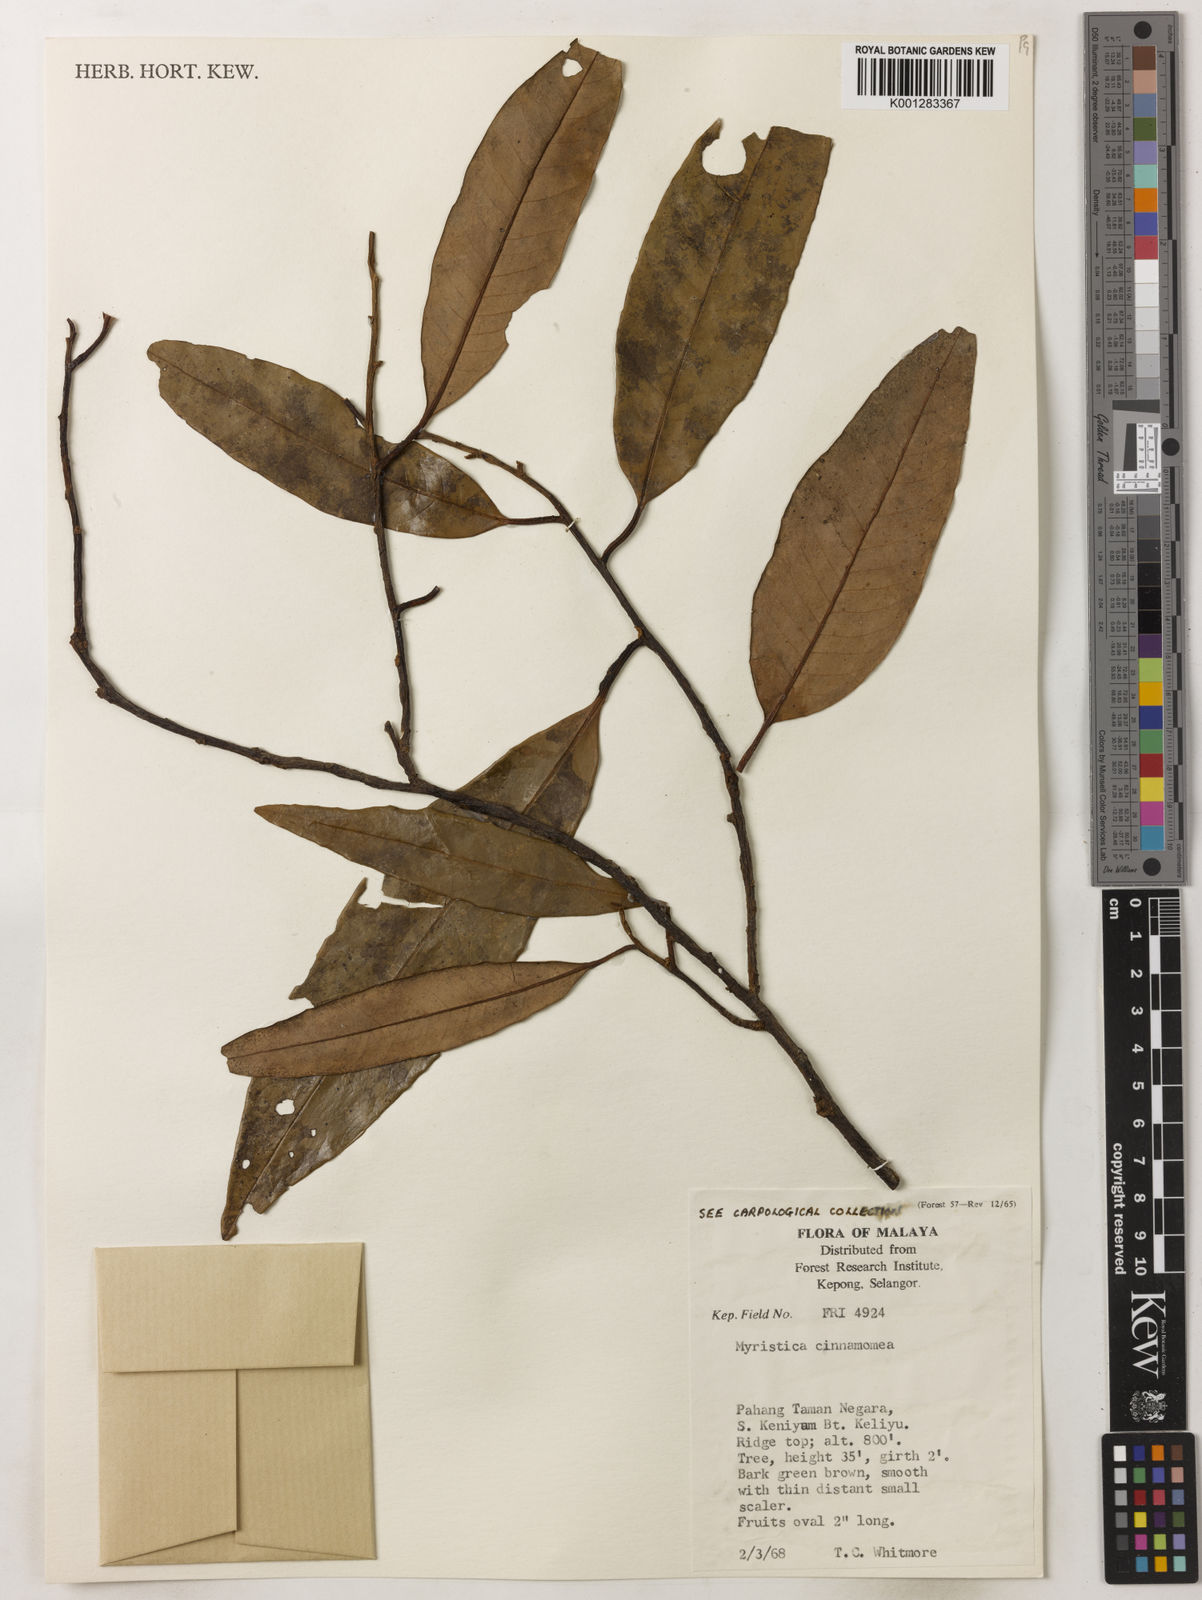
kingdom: Plantae
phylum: Tracheophyta
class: Magnoliopsida
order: Magnoliales
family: Myristicaceae
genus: Myristica
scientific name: Myristica cinnamomea
